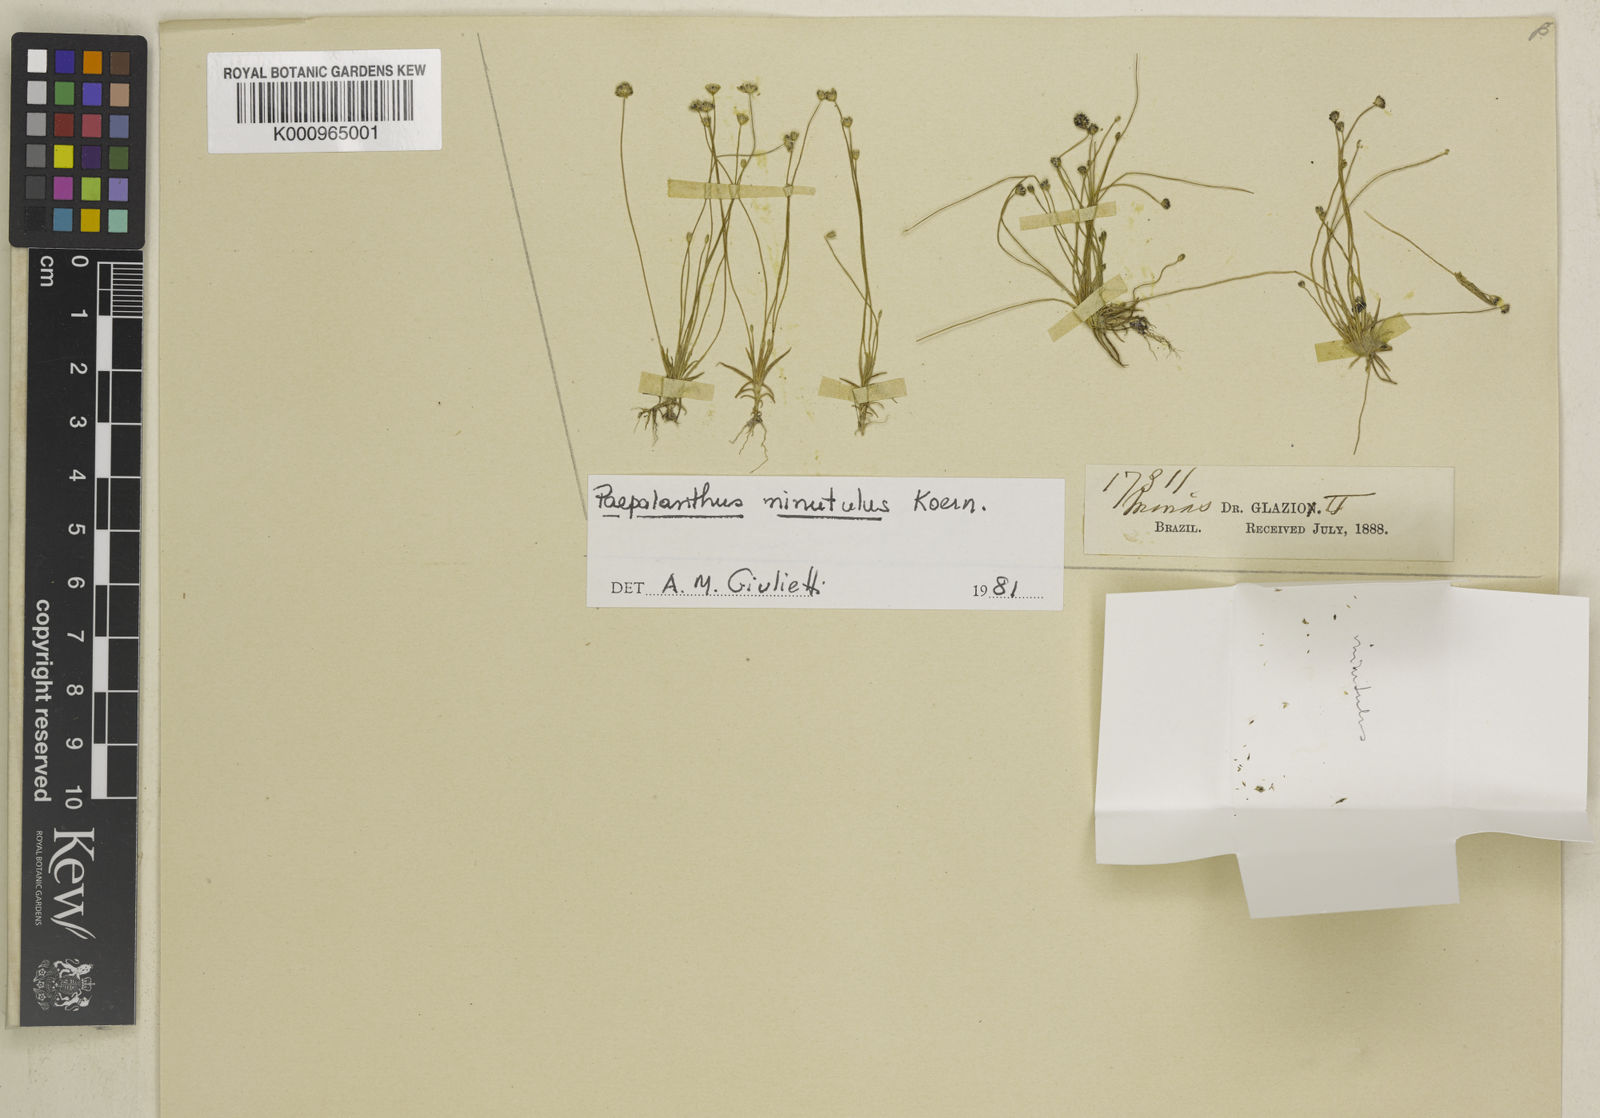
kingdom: Plantae
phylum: Tracheophyta
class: Liliopsida
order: Poales
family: Eriocaulaceae
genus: Paepalanthus
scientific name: Paepalanthus
